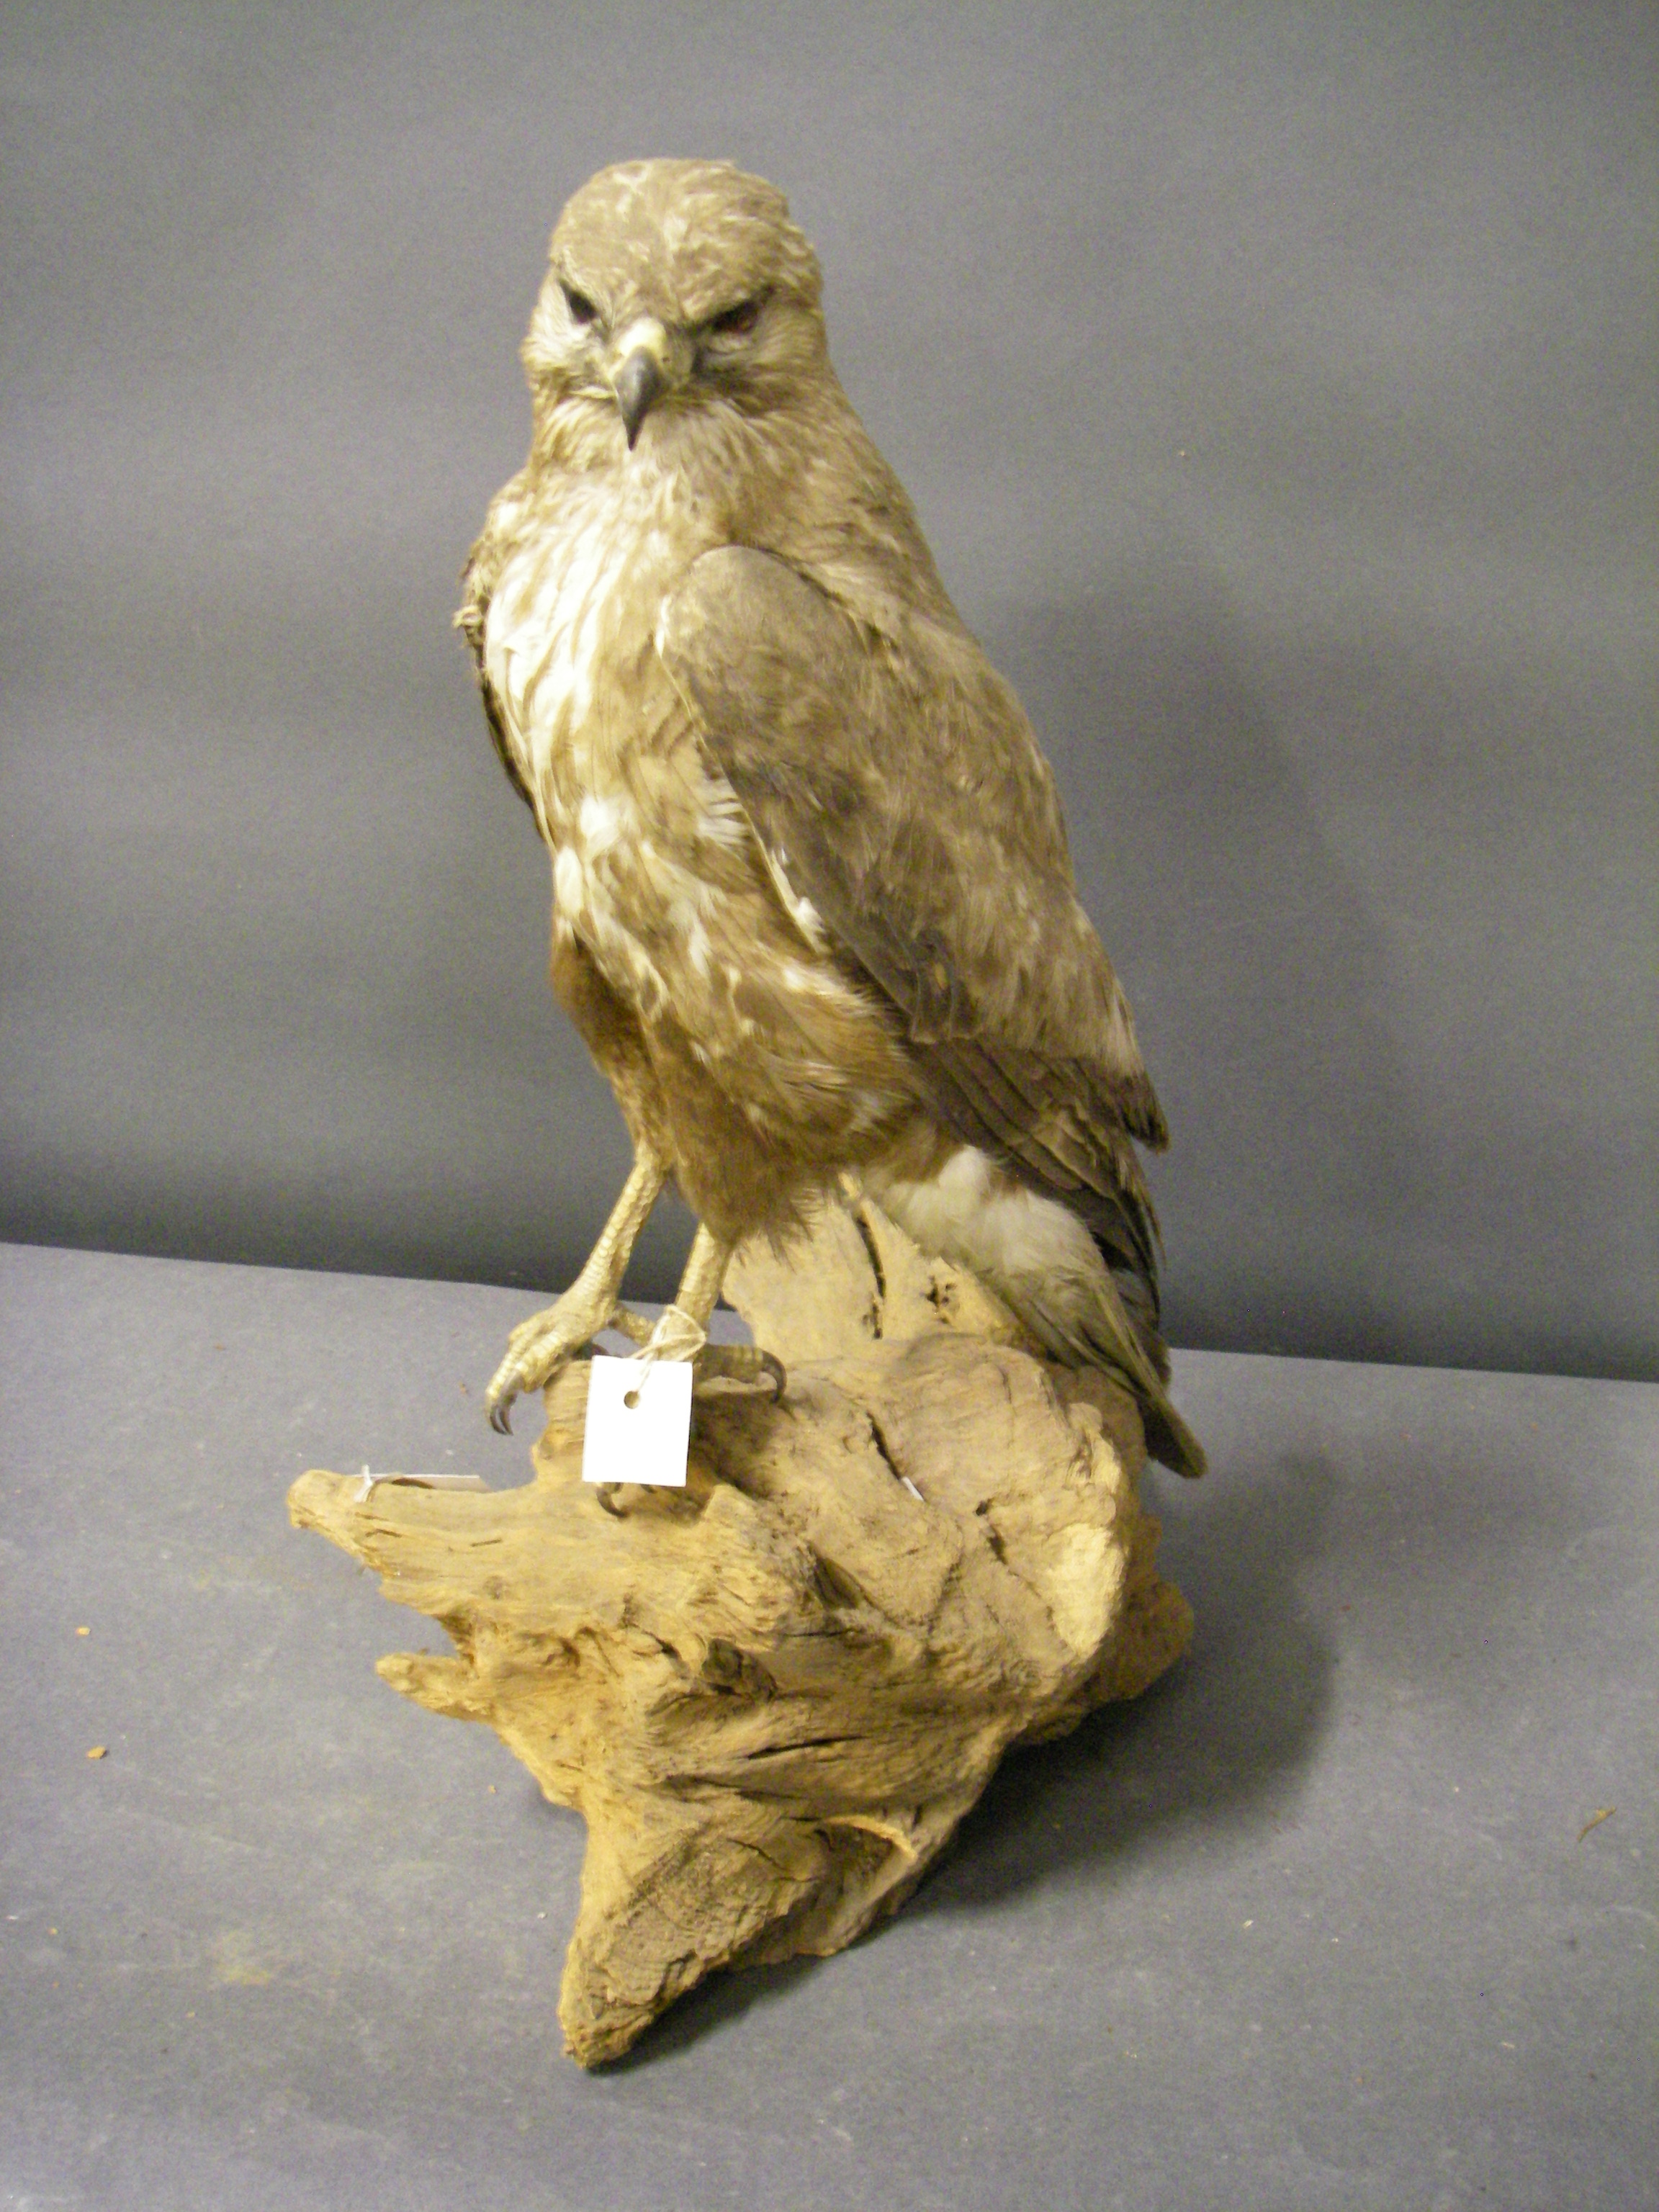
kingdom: Animalia
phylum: Chordata
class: Aves
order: Accipitriformes
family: Accipitridae
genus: Buteo
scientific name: Buteo buteo
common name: Common buzzard
